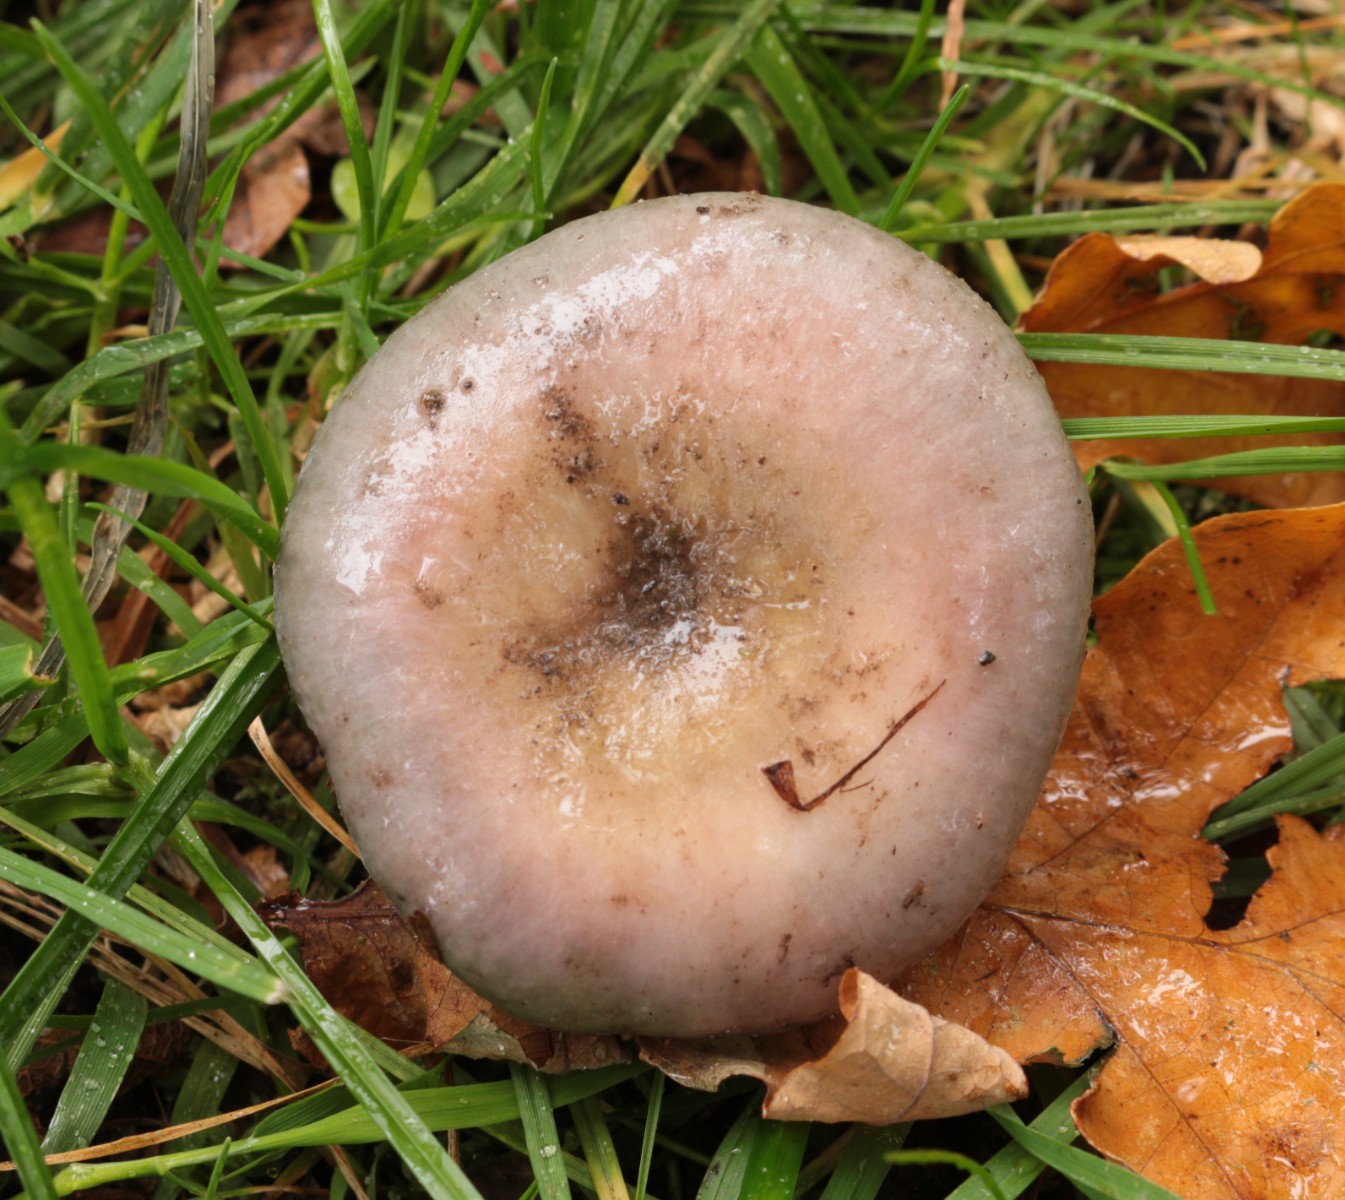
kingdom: Fungi
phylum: Basidiomycota
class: Agaricomycetes
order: Russulales
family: Russulaceae
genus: Russula
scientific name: Russula ionochlora
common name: violetgrøn skørhat
